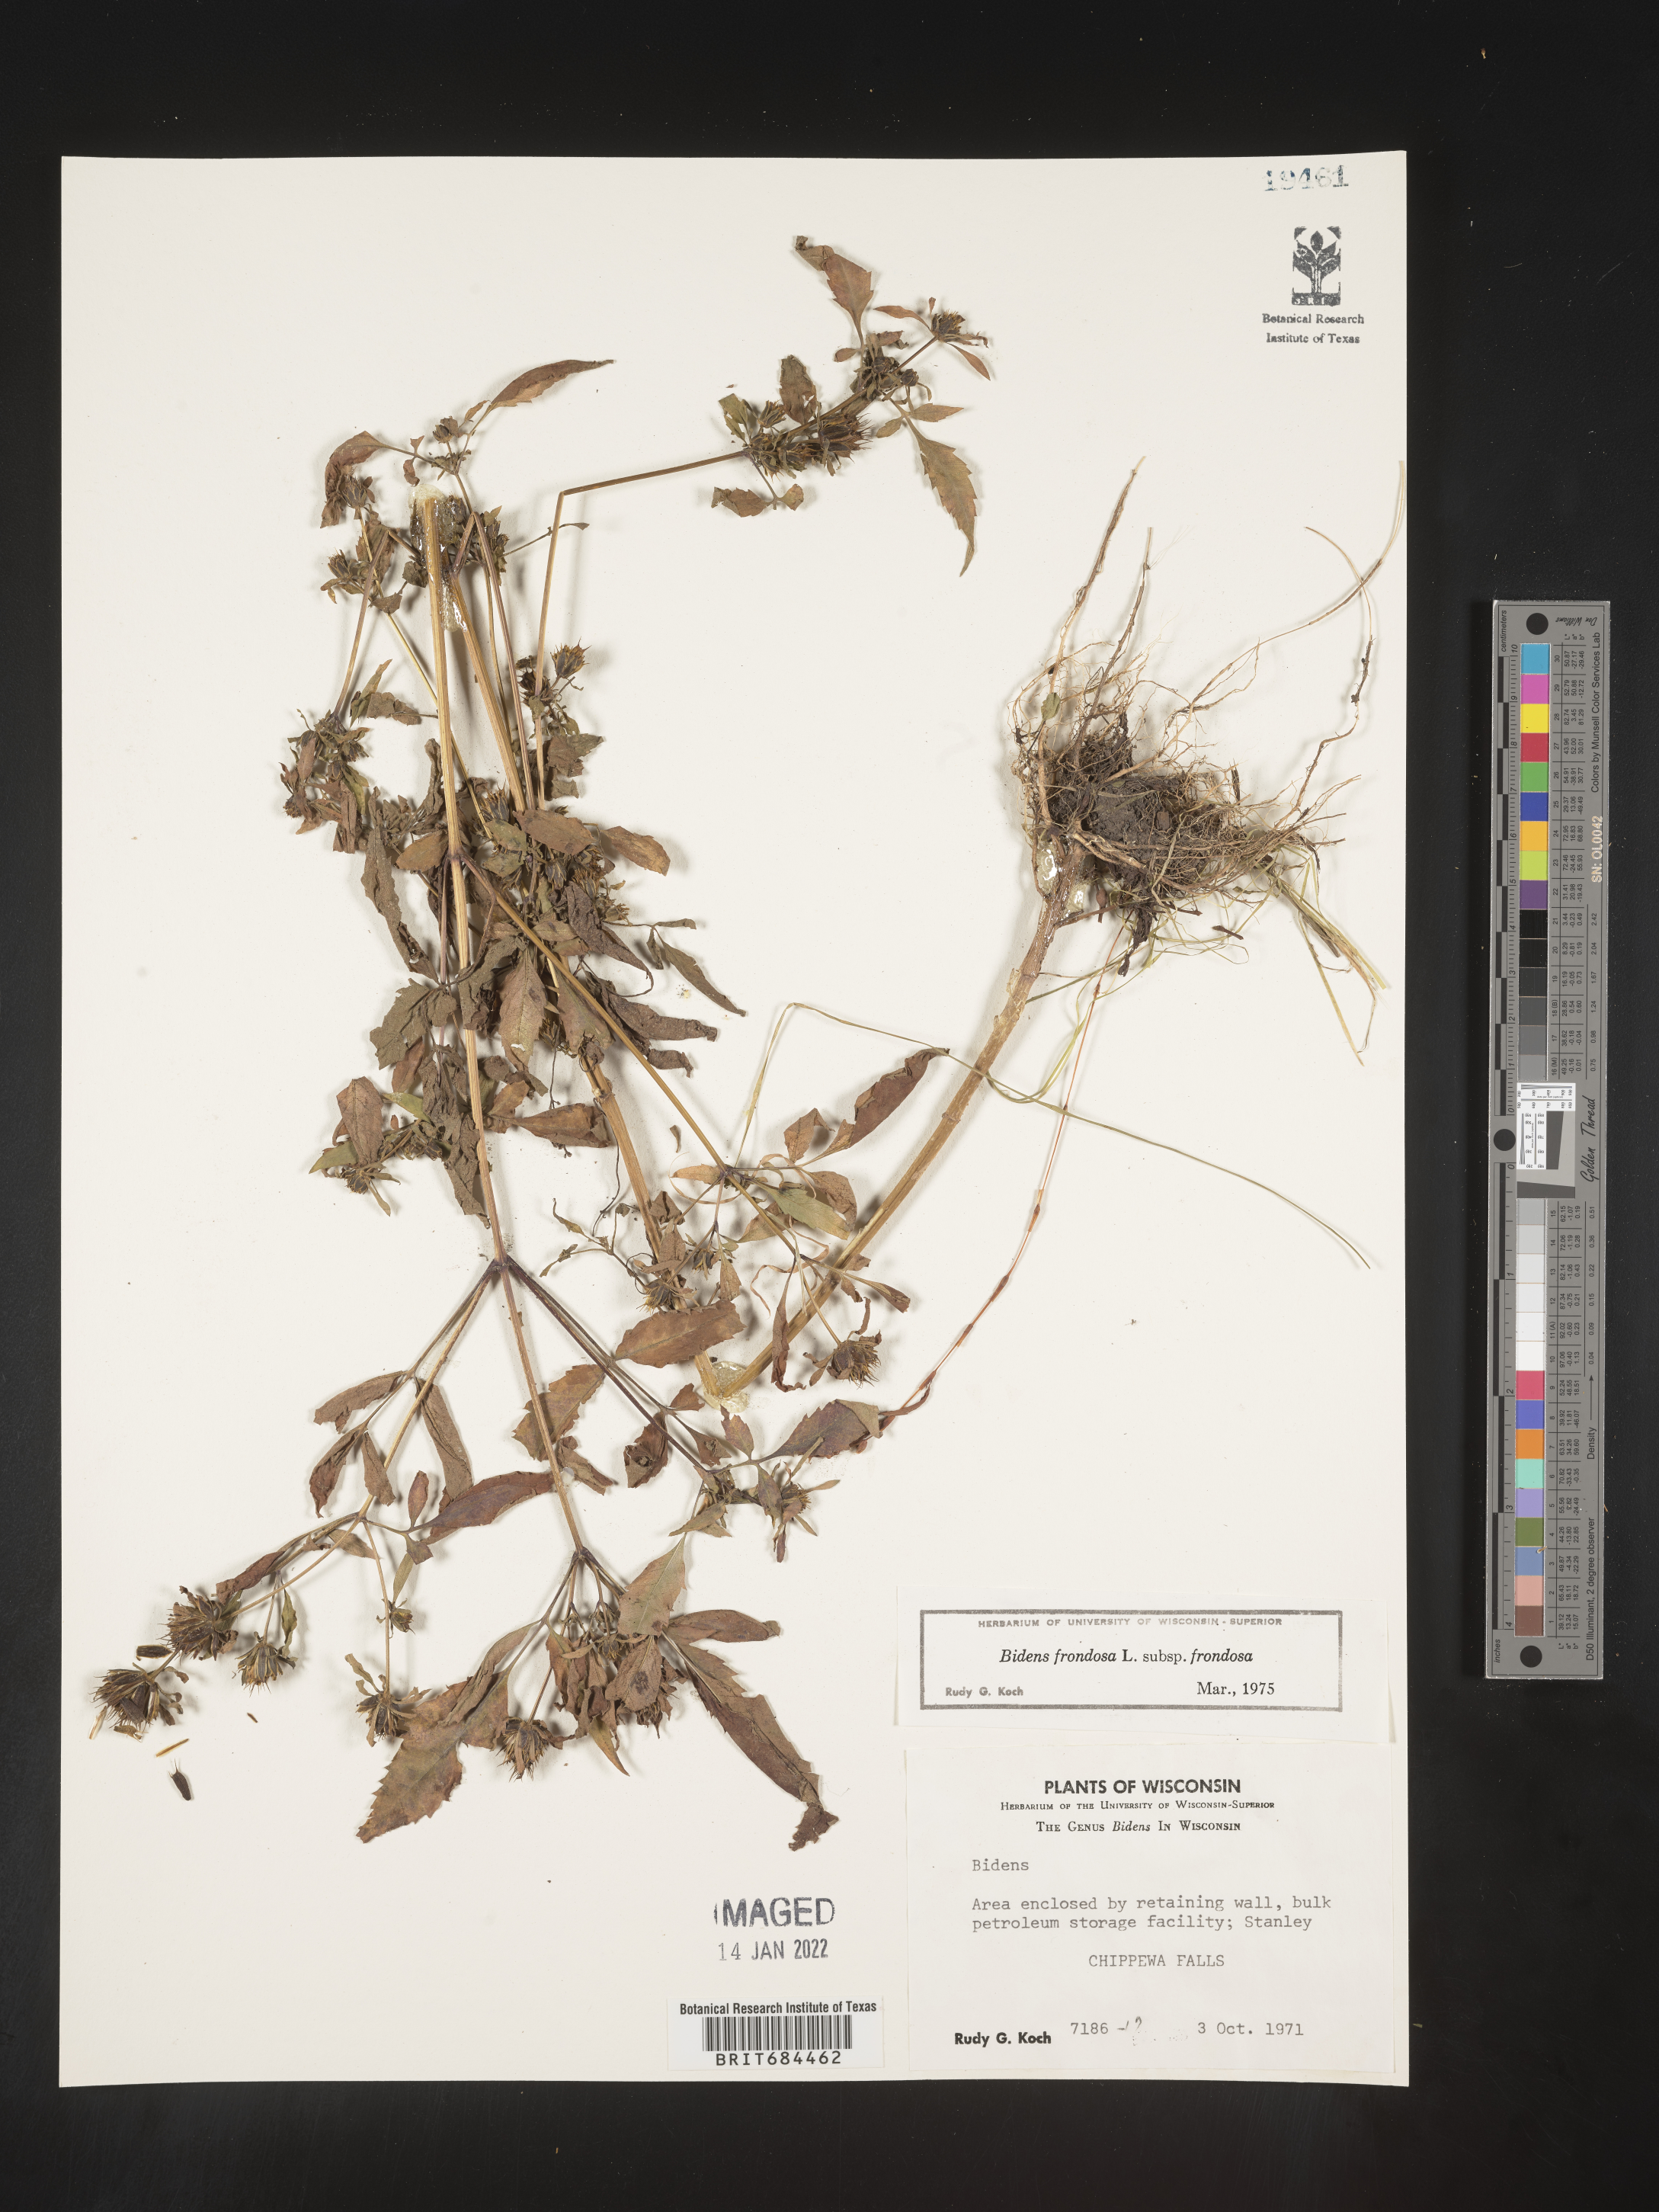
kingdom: Plantae
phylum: Tracheophyta
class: Magnoliopsida
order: Asterales
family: Asteraceae
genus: Bidens
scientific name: Bidens frondosa
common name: Beggarticks
